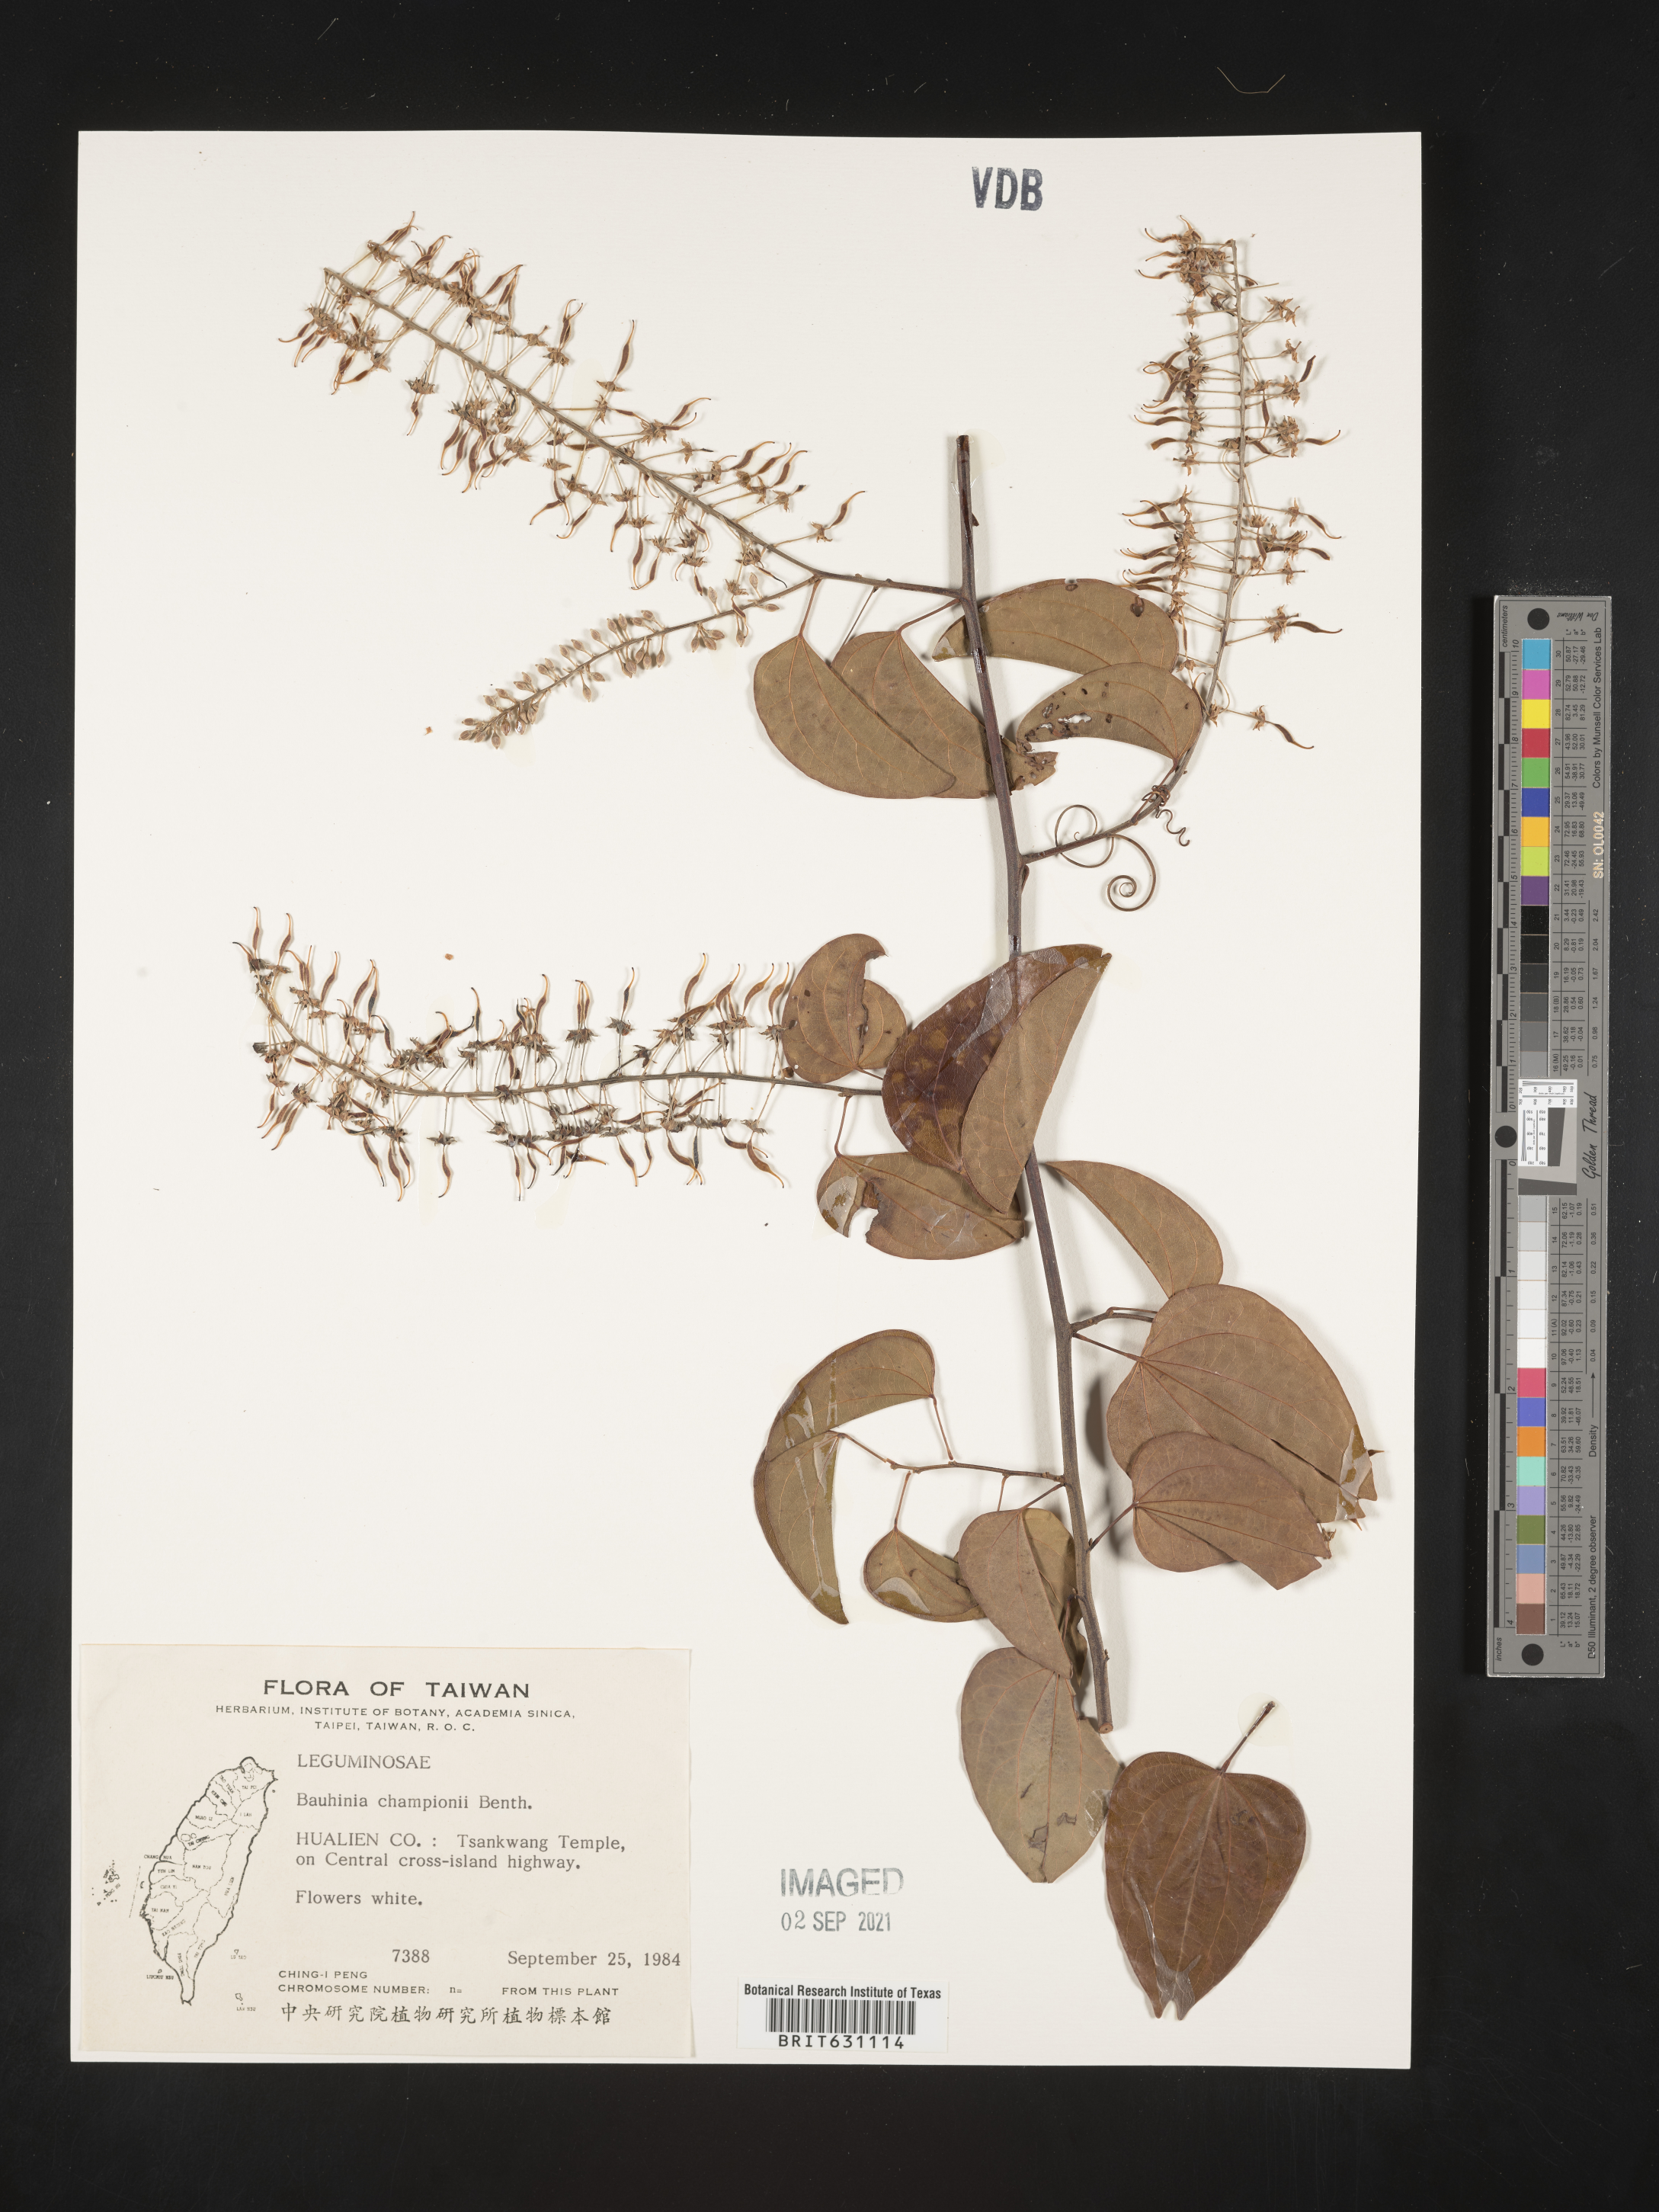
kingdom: Plantae
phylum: Tracheophyta
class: Magnoliopsida
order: Fabales
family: Fabaceae
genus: Bauhinia
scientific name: Bauhinia
